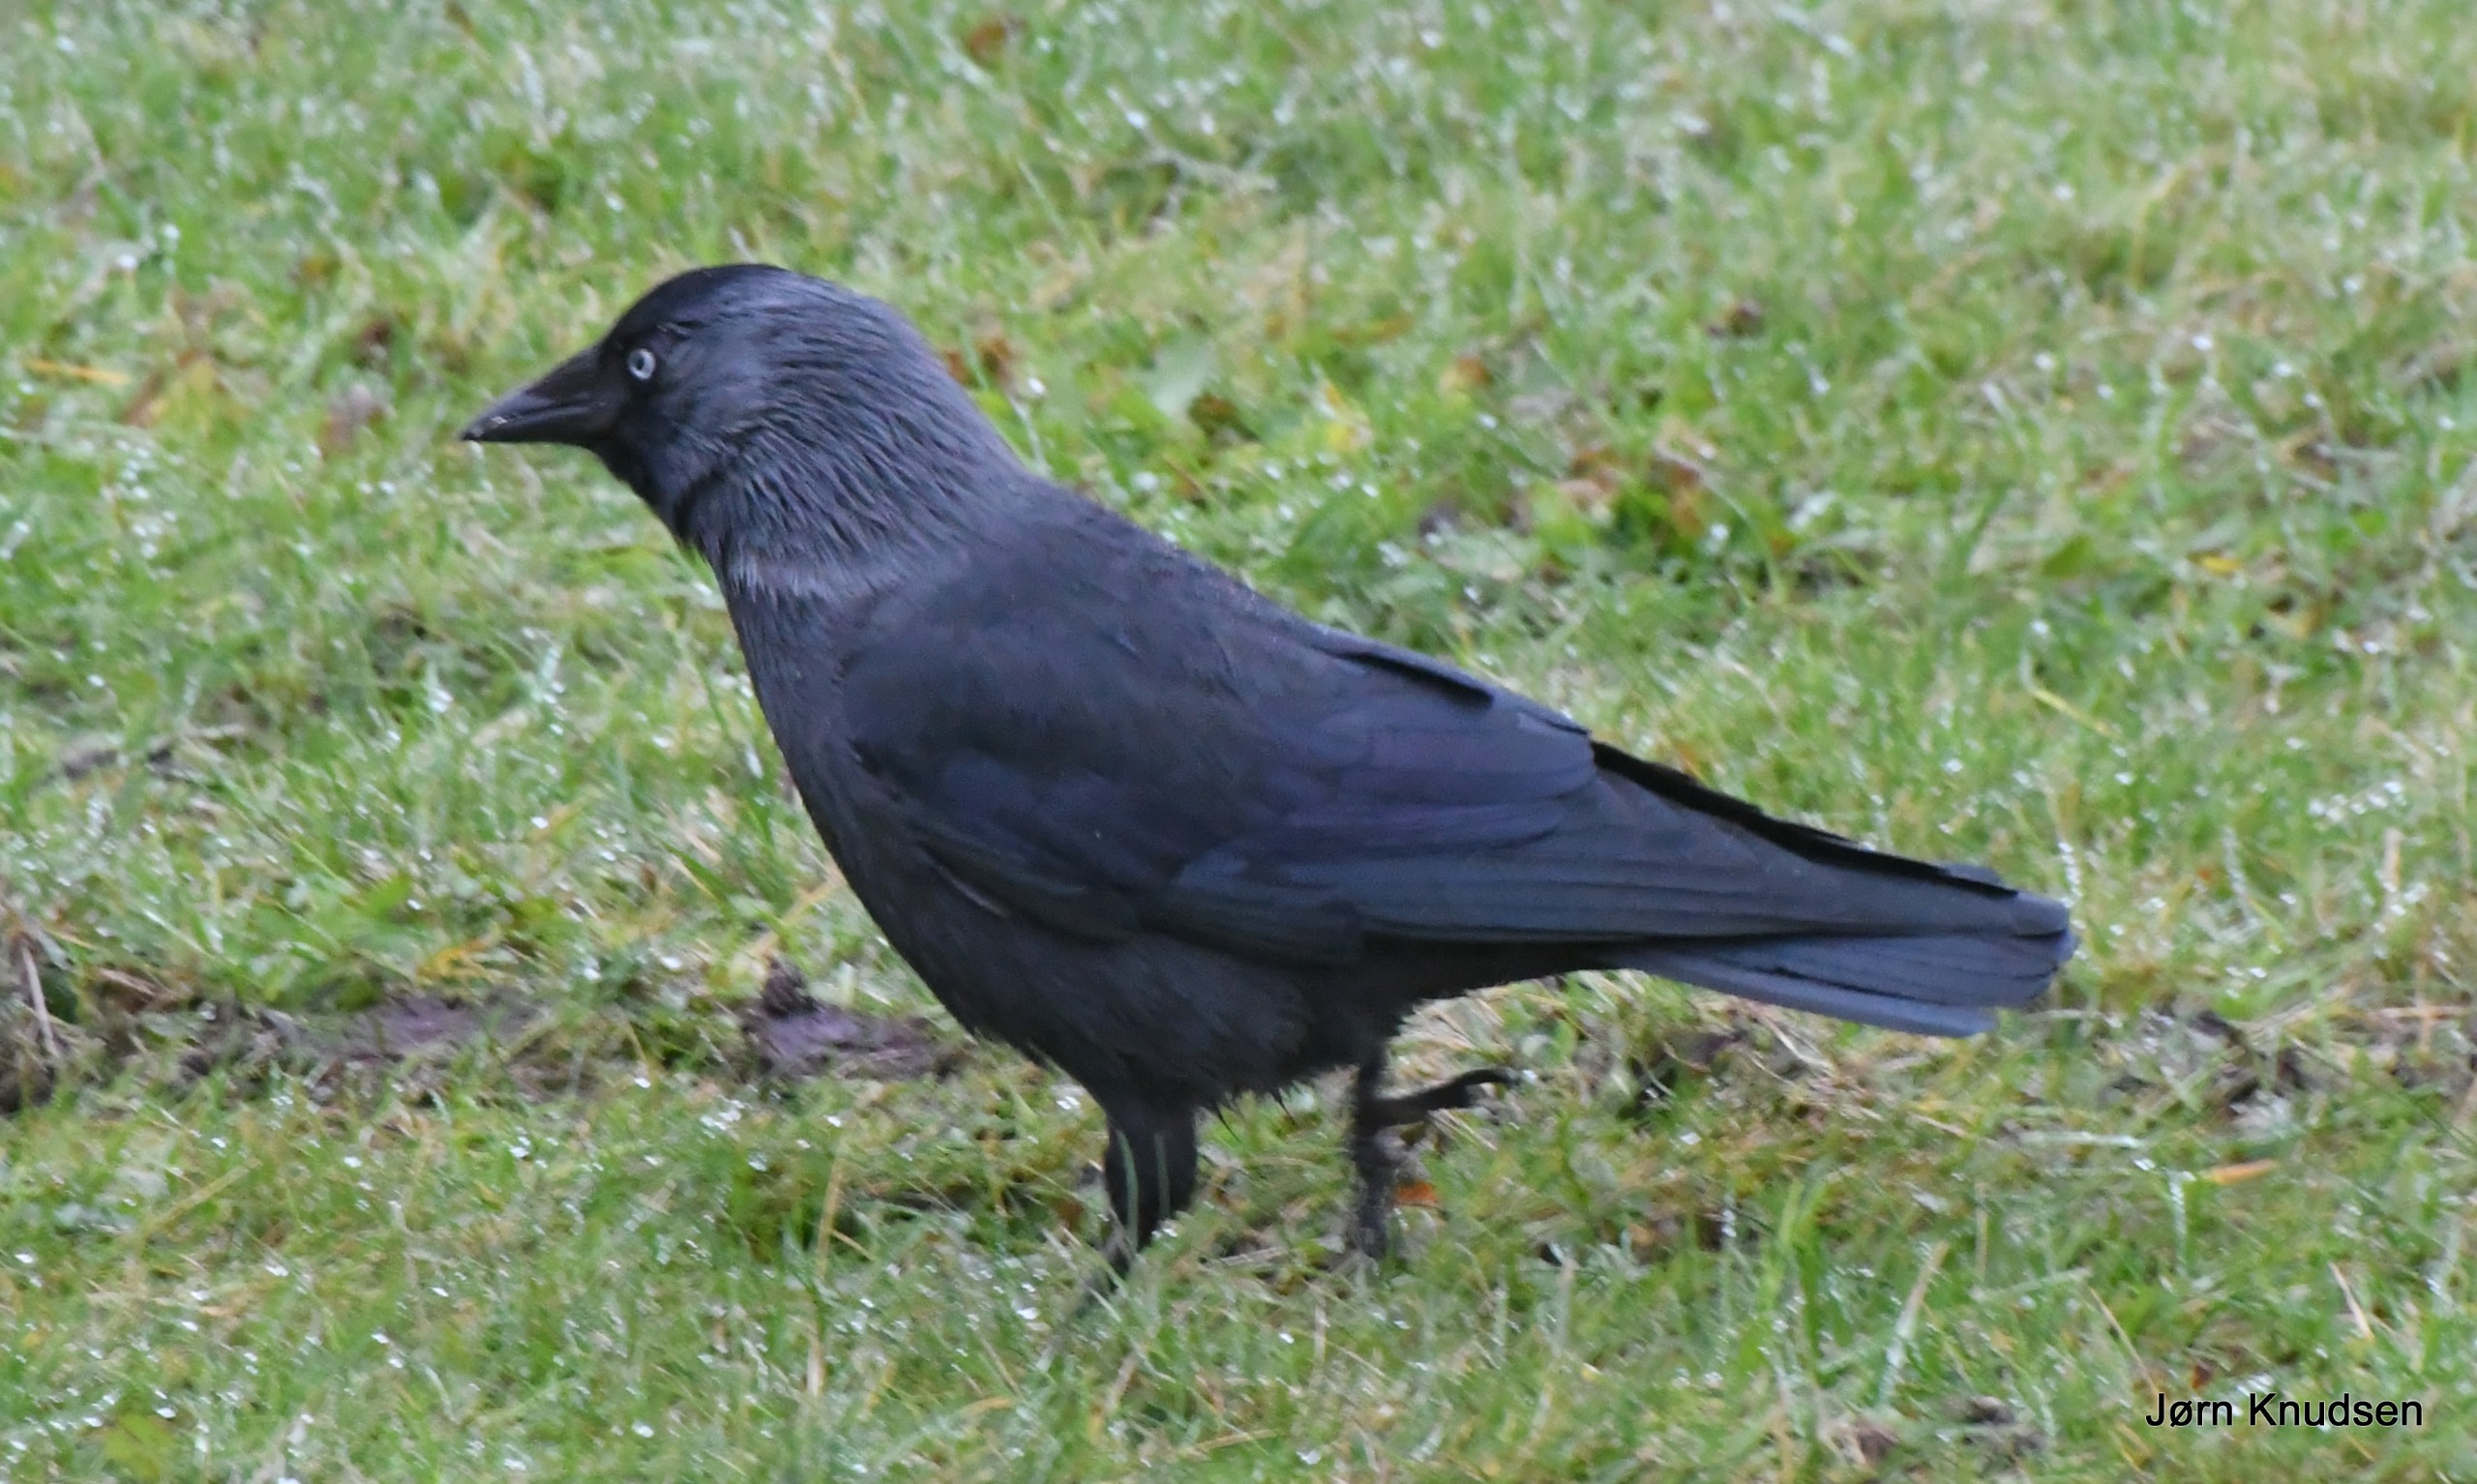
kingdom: Animalia
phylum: Chordata
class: Aves
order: Passeriformes
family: Corvidae
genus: Coloeus
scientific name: Coloeus monedula
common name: Allike
